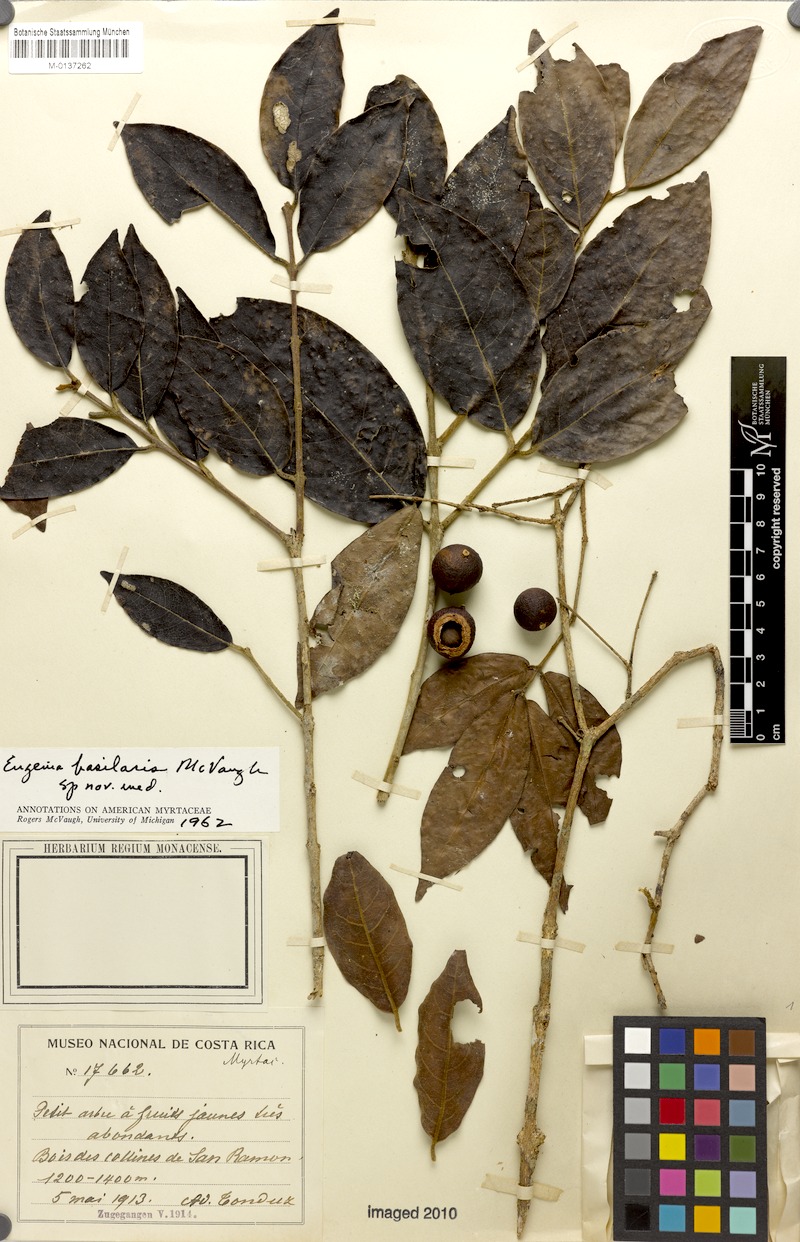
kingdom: Plantae
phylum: Tracheophyta
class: Magnoliopsida
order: Myrtales
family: Myrtaceae
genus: Eugenia
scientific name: Eugenia basilaris
